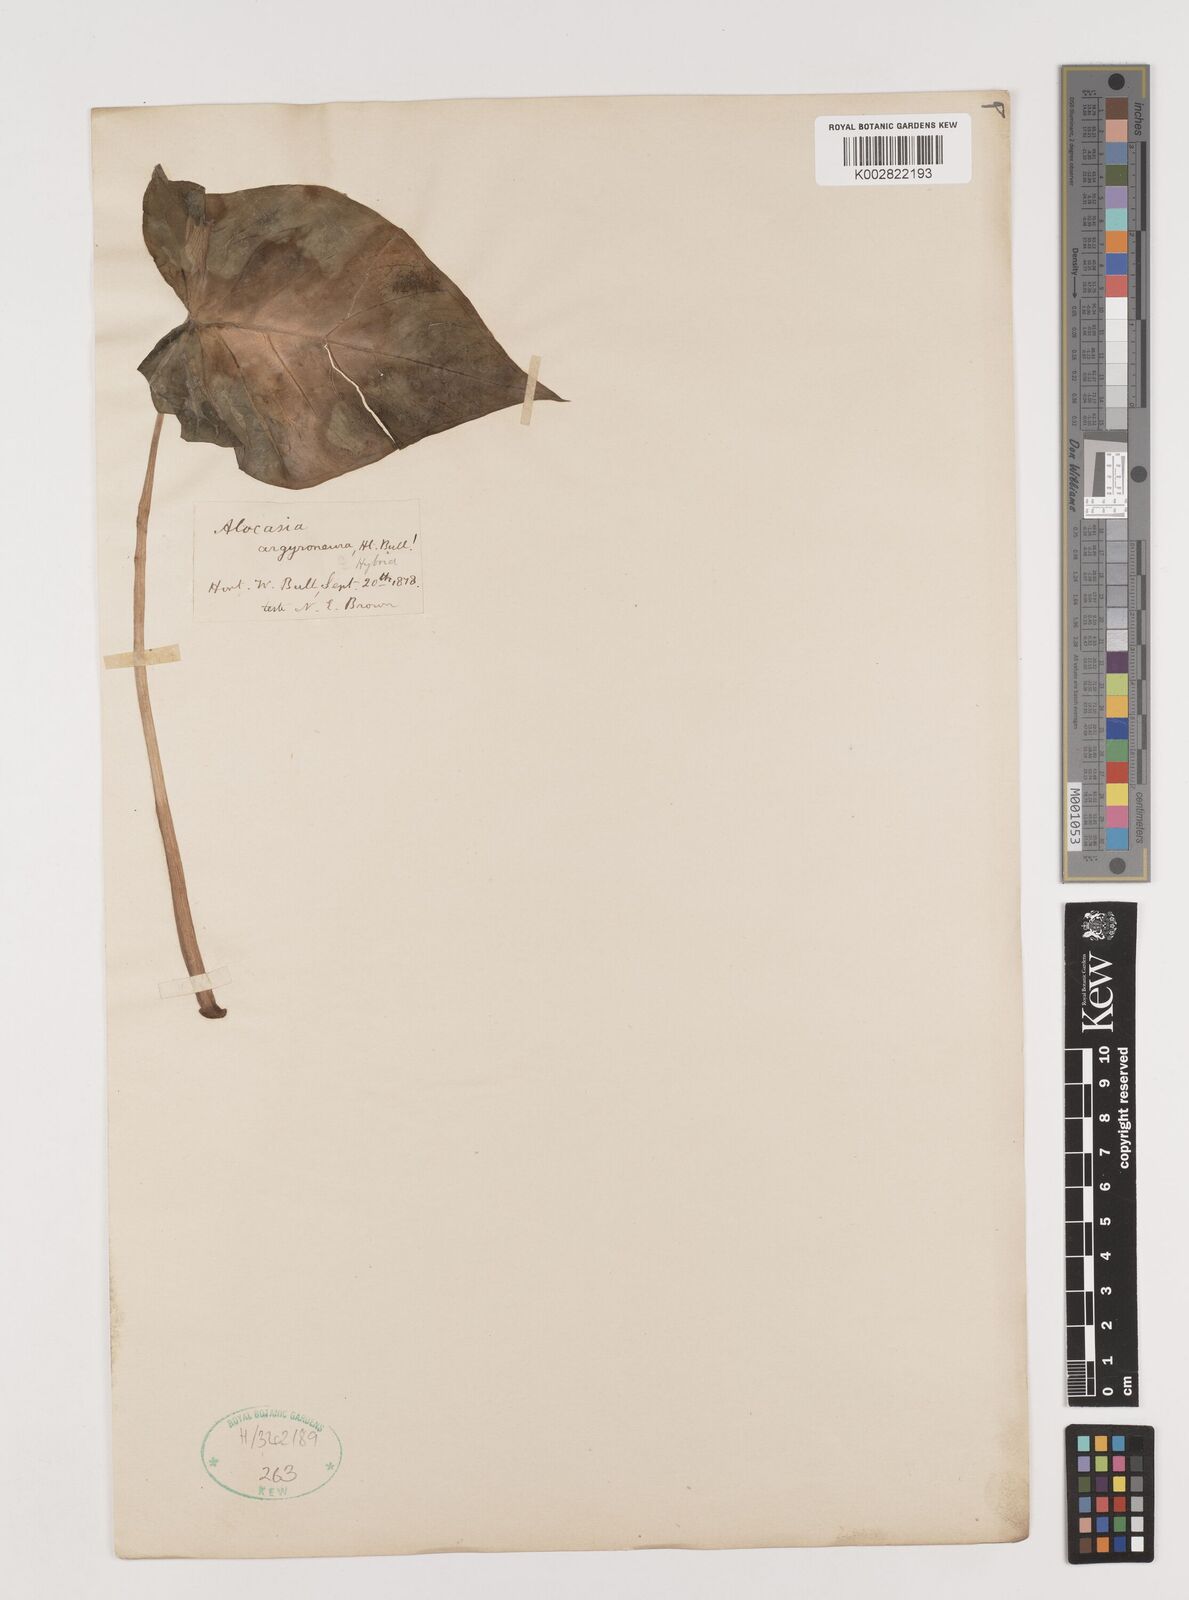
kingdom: Plantae
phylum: Tracheophyta
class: Liliopsida
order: Alismatales
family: Araceae
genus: Alocasia
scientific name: Alocasia macrorrhizos
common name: Giant taro
